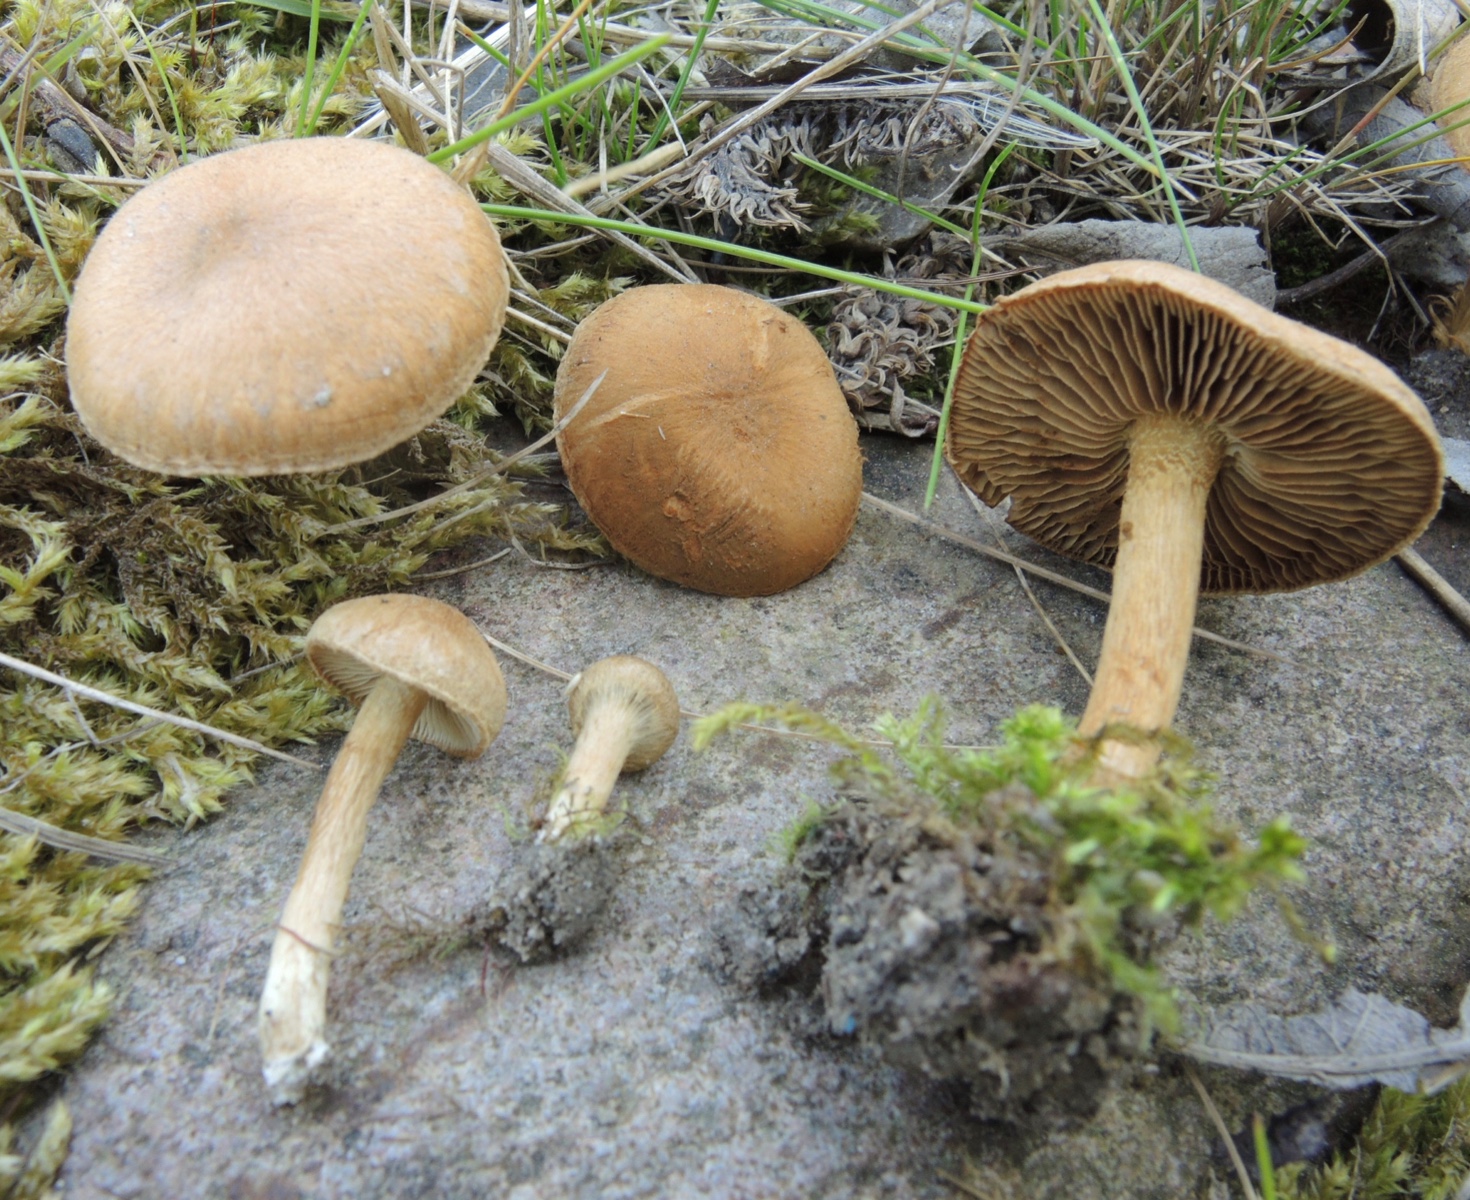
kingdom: Fungi
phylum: Basidiomycota
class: Agaricomycetes
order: Agaricales
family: Inocybaceae
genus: Inocybe
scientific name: Inocybe dulcamara
